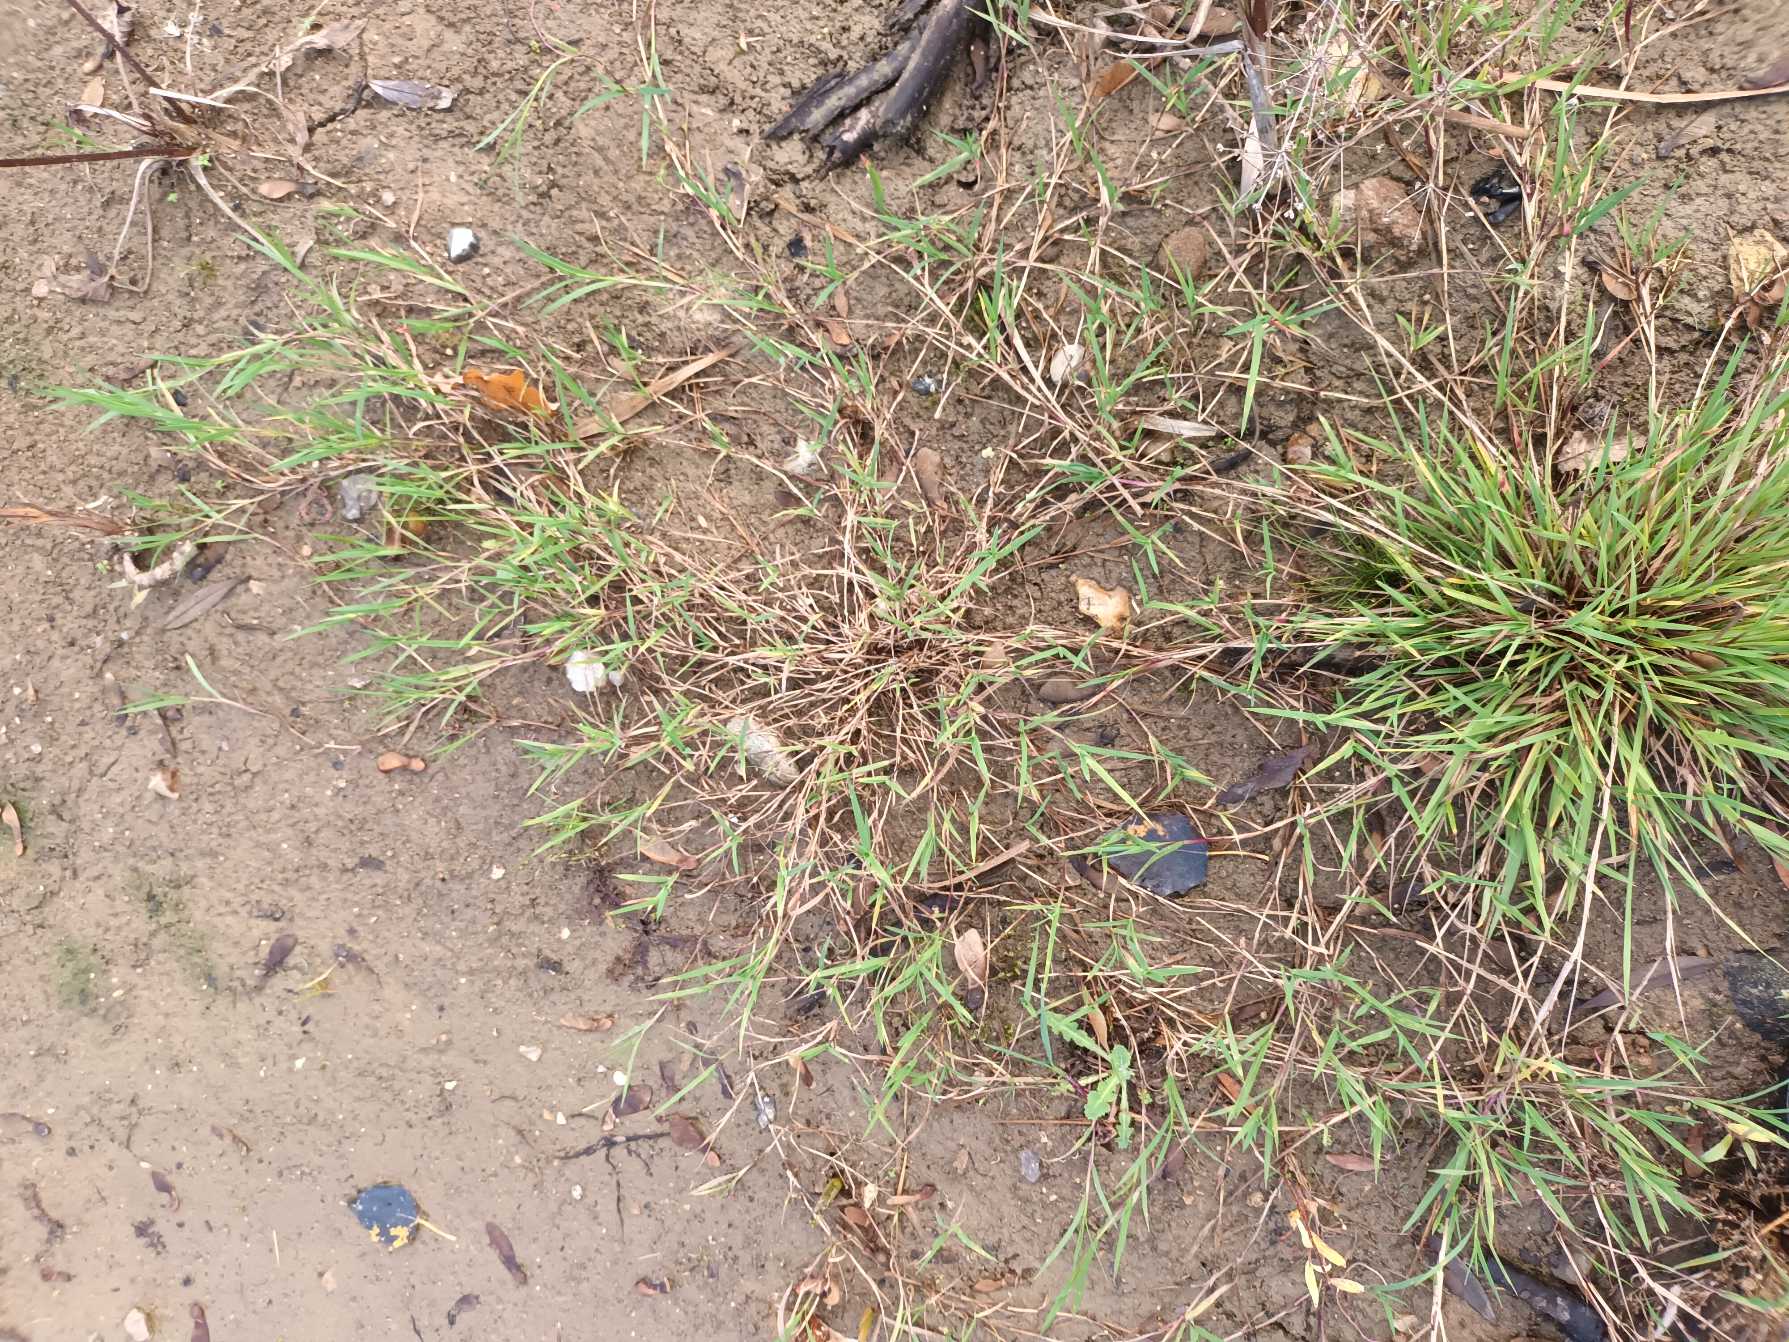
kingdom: Plantae
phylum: Tracheophyta
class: Liliopsida
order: Poales
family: Poaceae
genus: Agrostis
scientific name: Agrostis stolonifera
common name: Kryb-hvene
